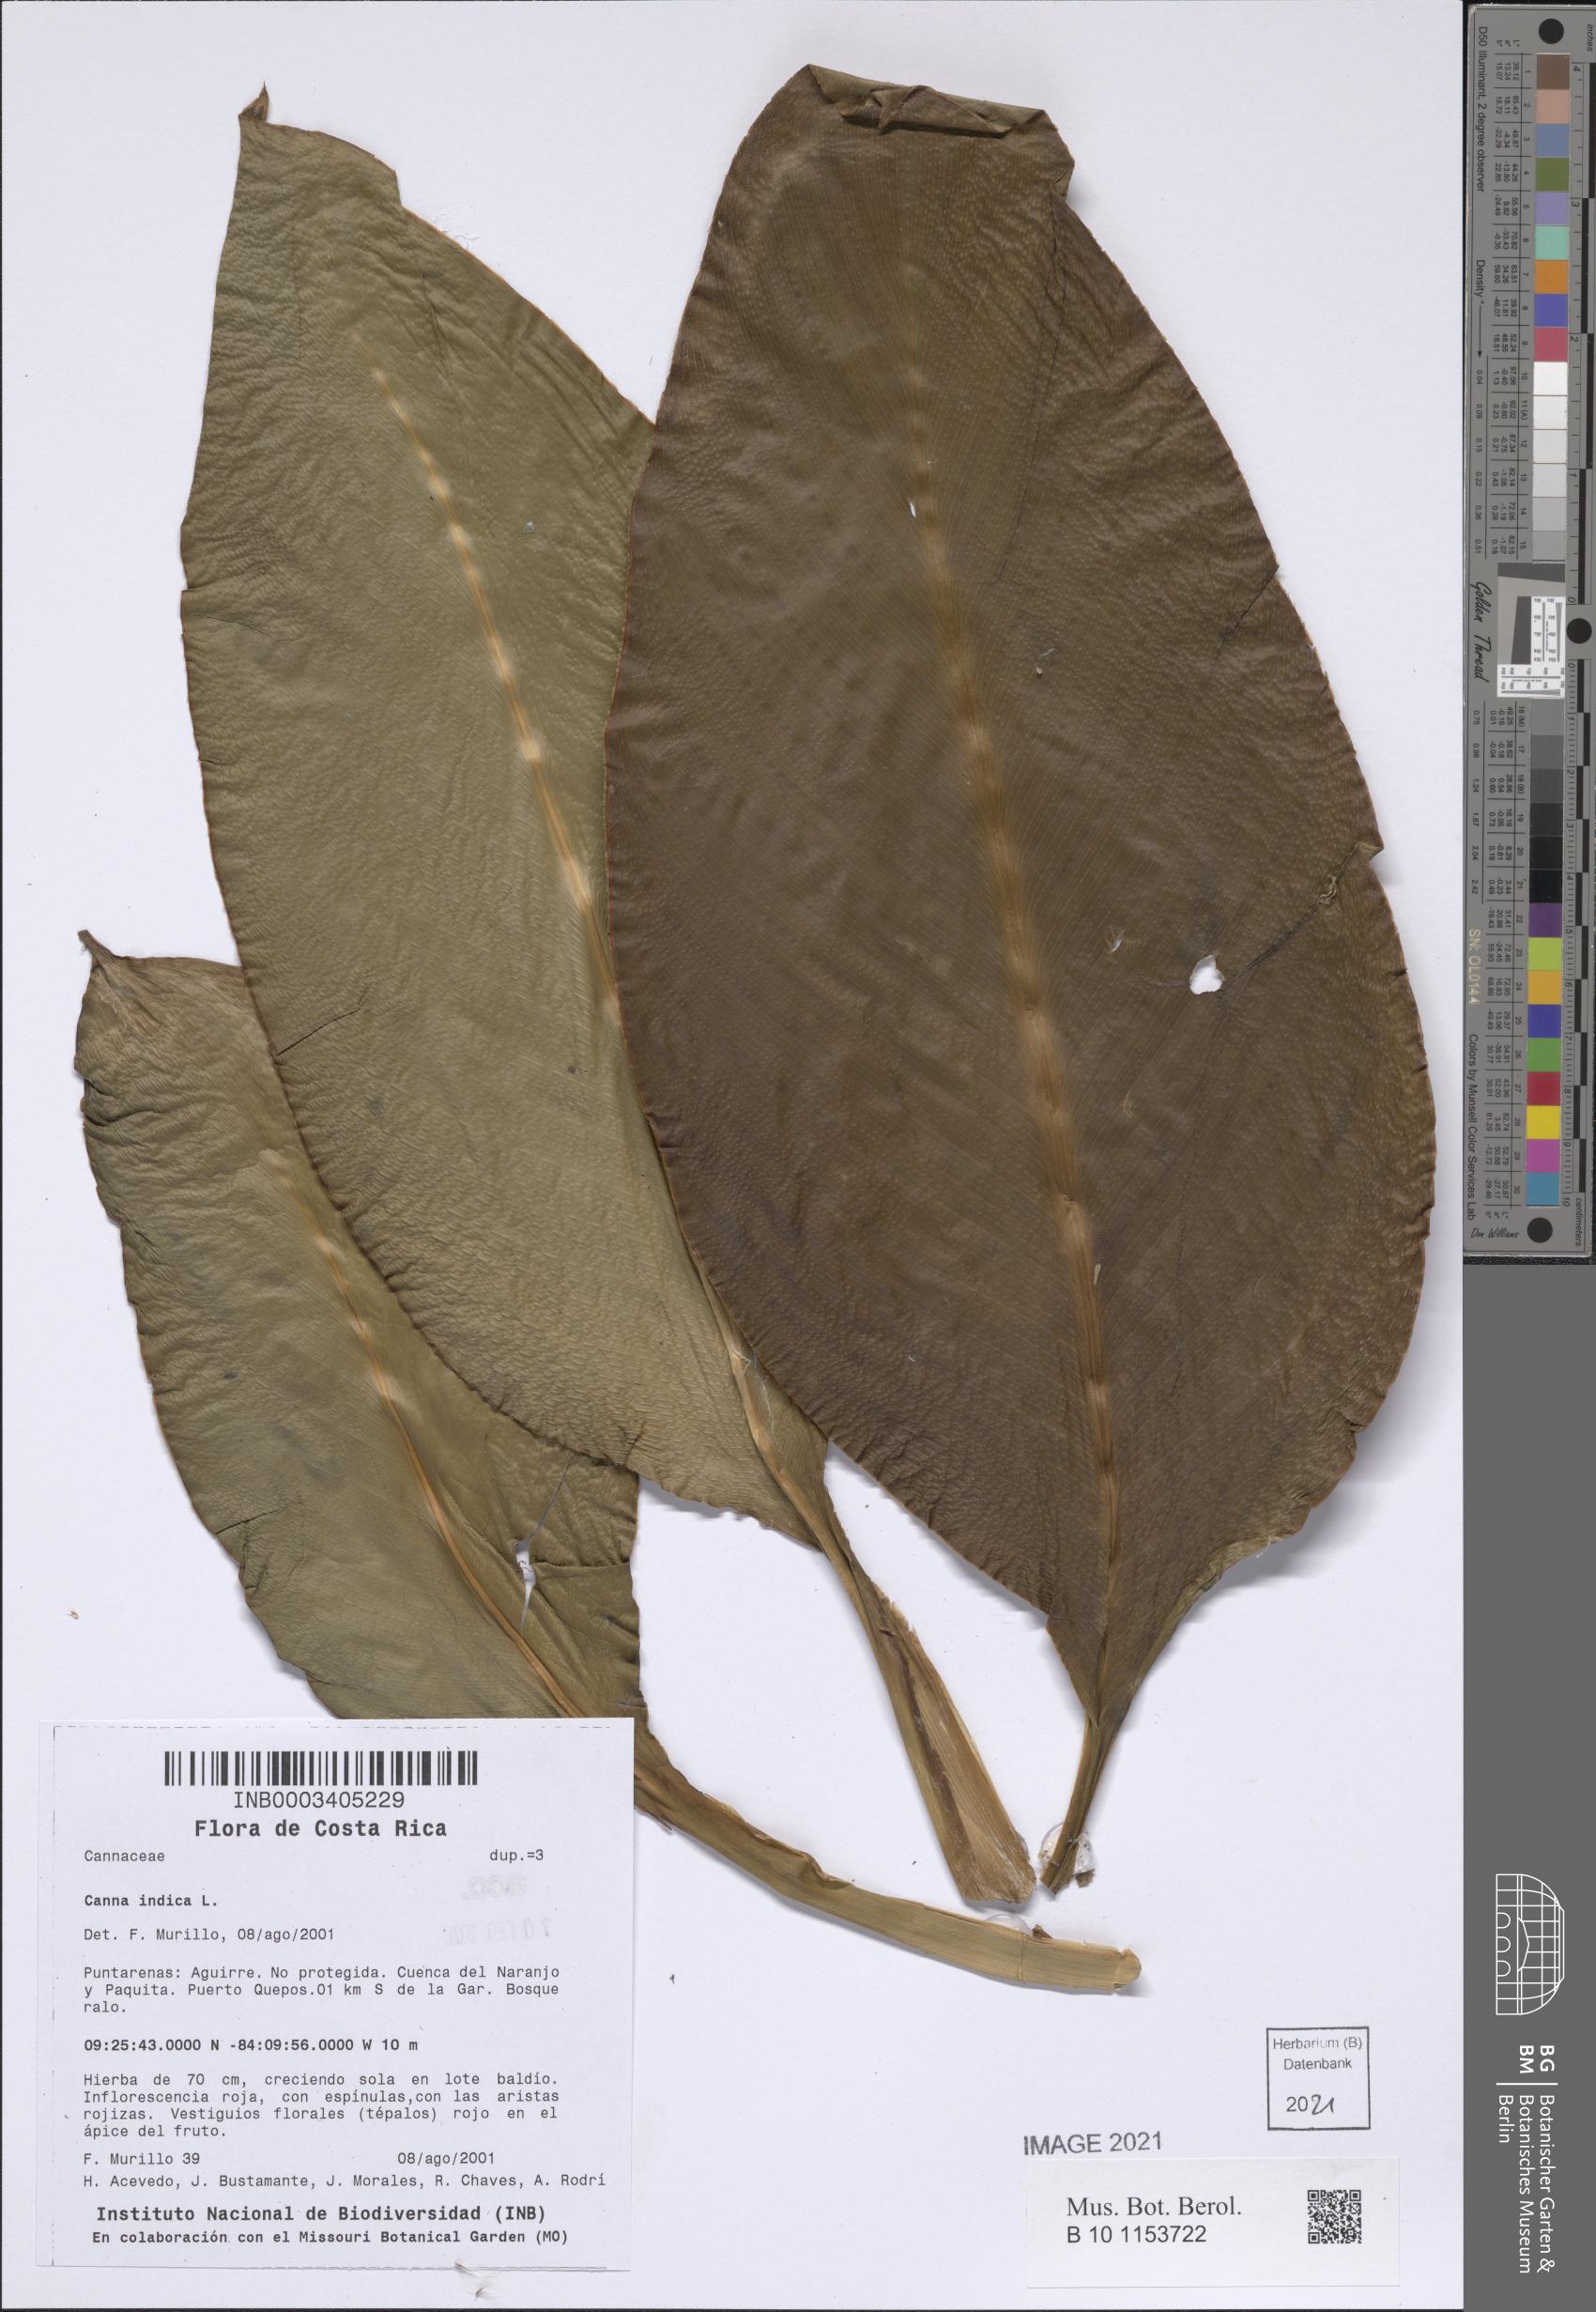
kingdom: Plantae
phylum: Tracheophyta
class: Liliopsida
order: Zingiberales
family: Cannaceae
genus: Canna
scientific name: Canna indica
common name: Indian shot
